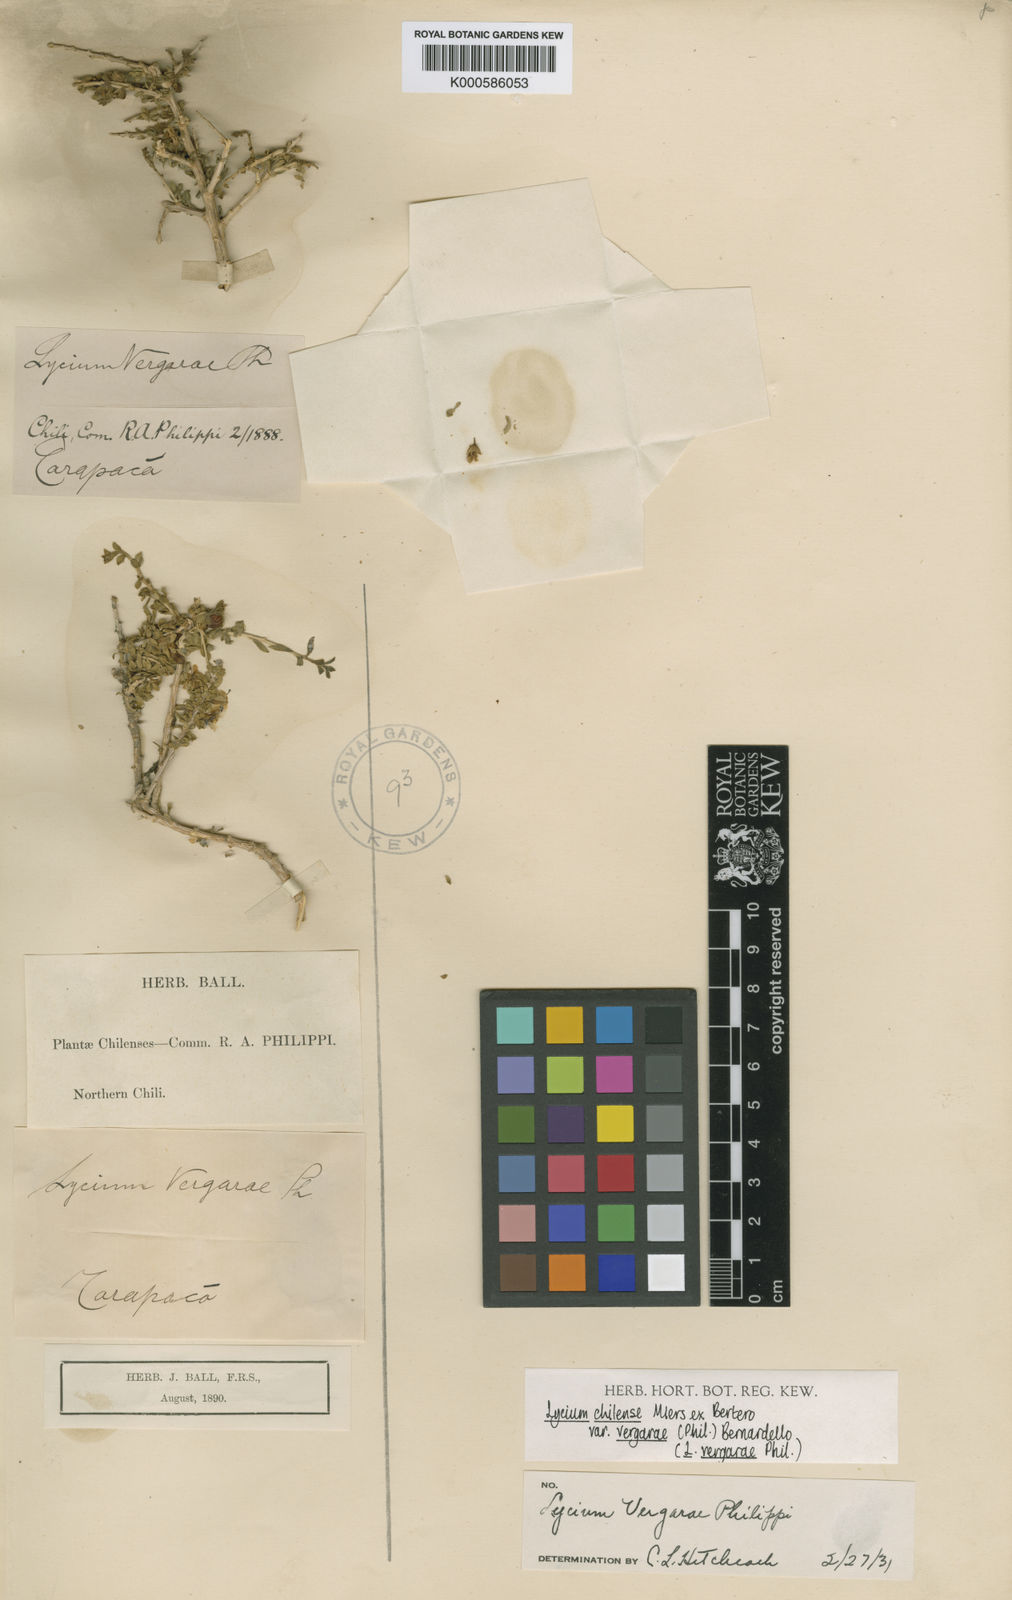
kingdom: Plantae
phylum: Tracheophyta
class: Magnoliopsida
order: Solanales
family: Solanaceae
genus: Lycium
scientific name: Lycium chilense
